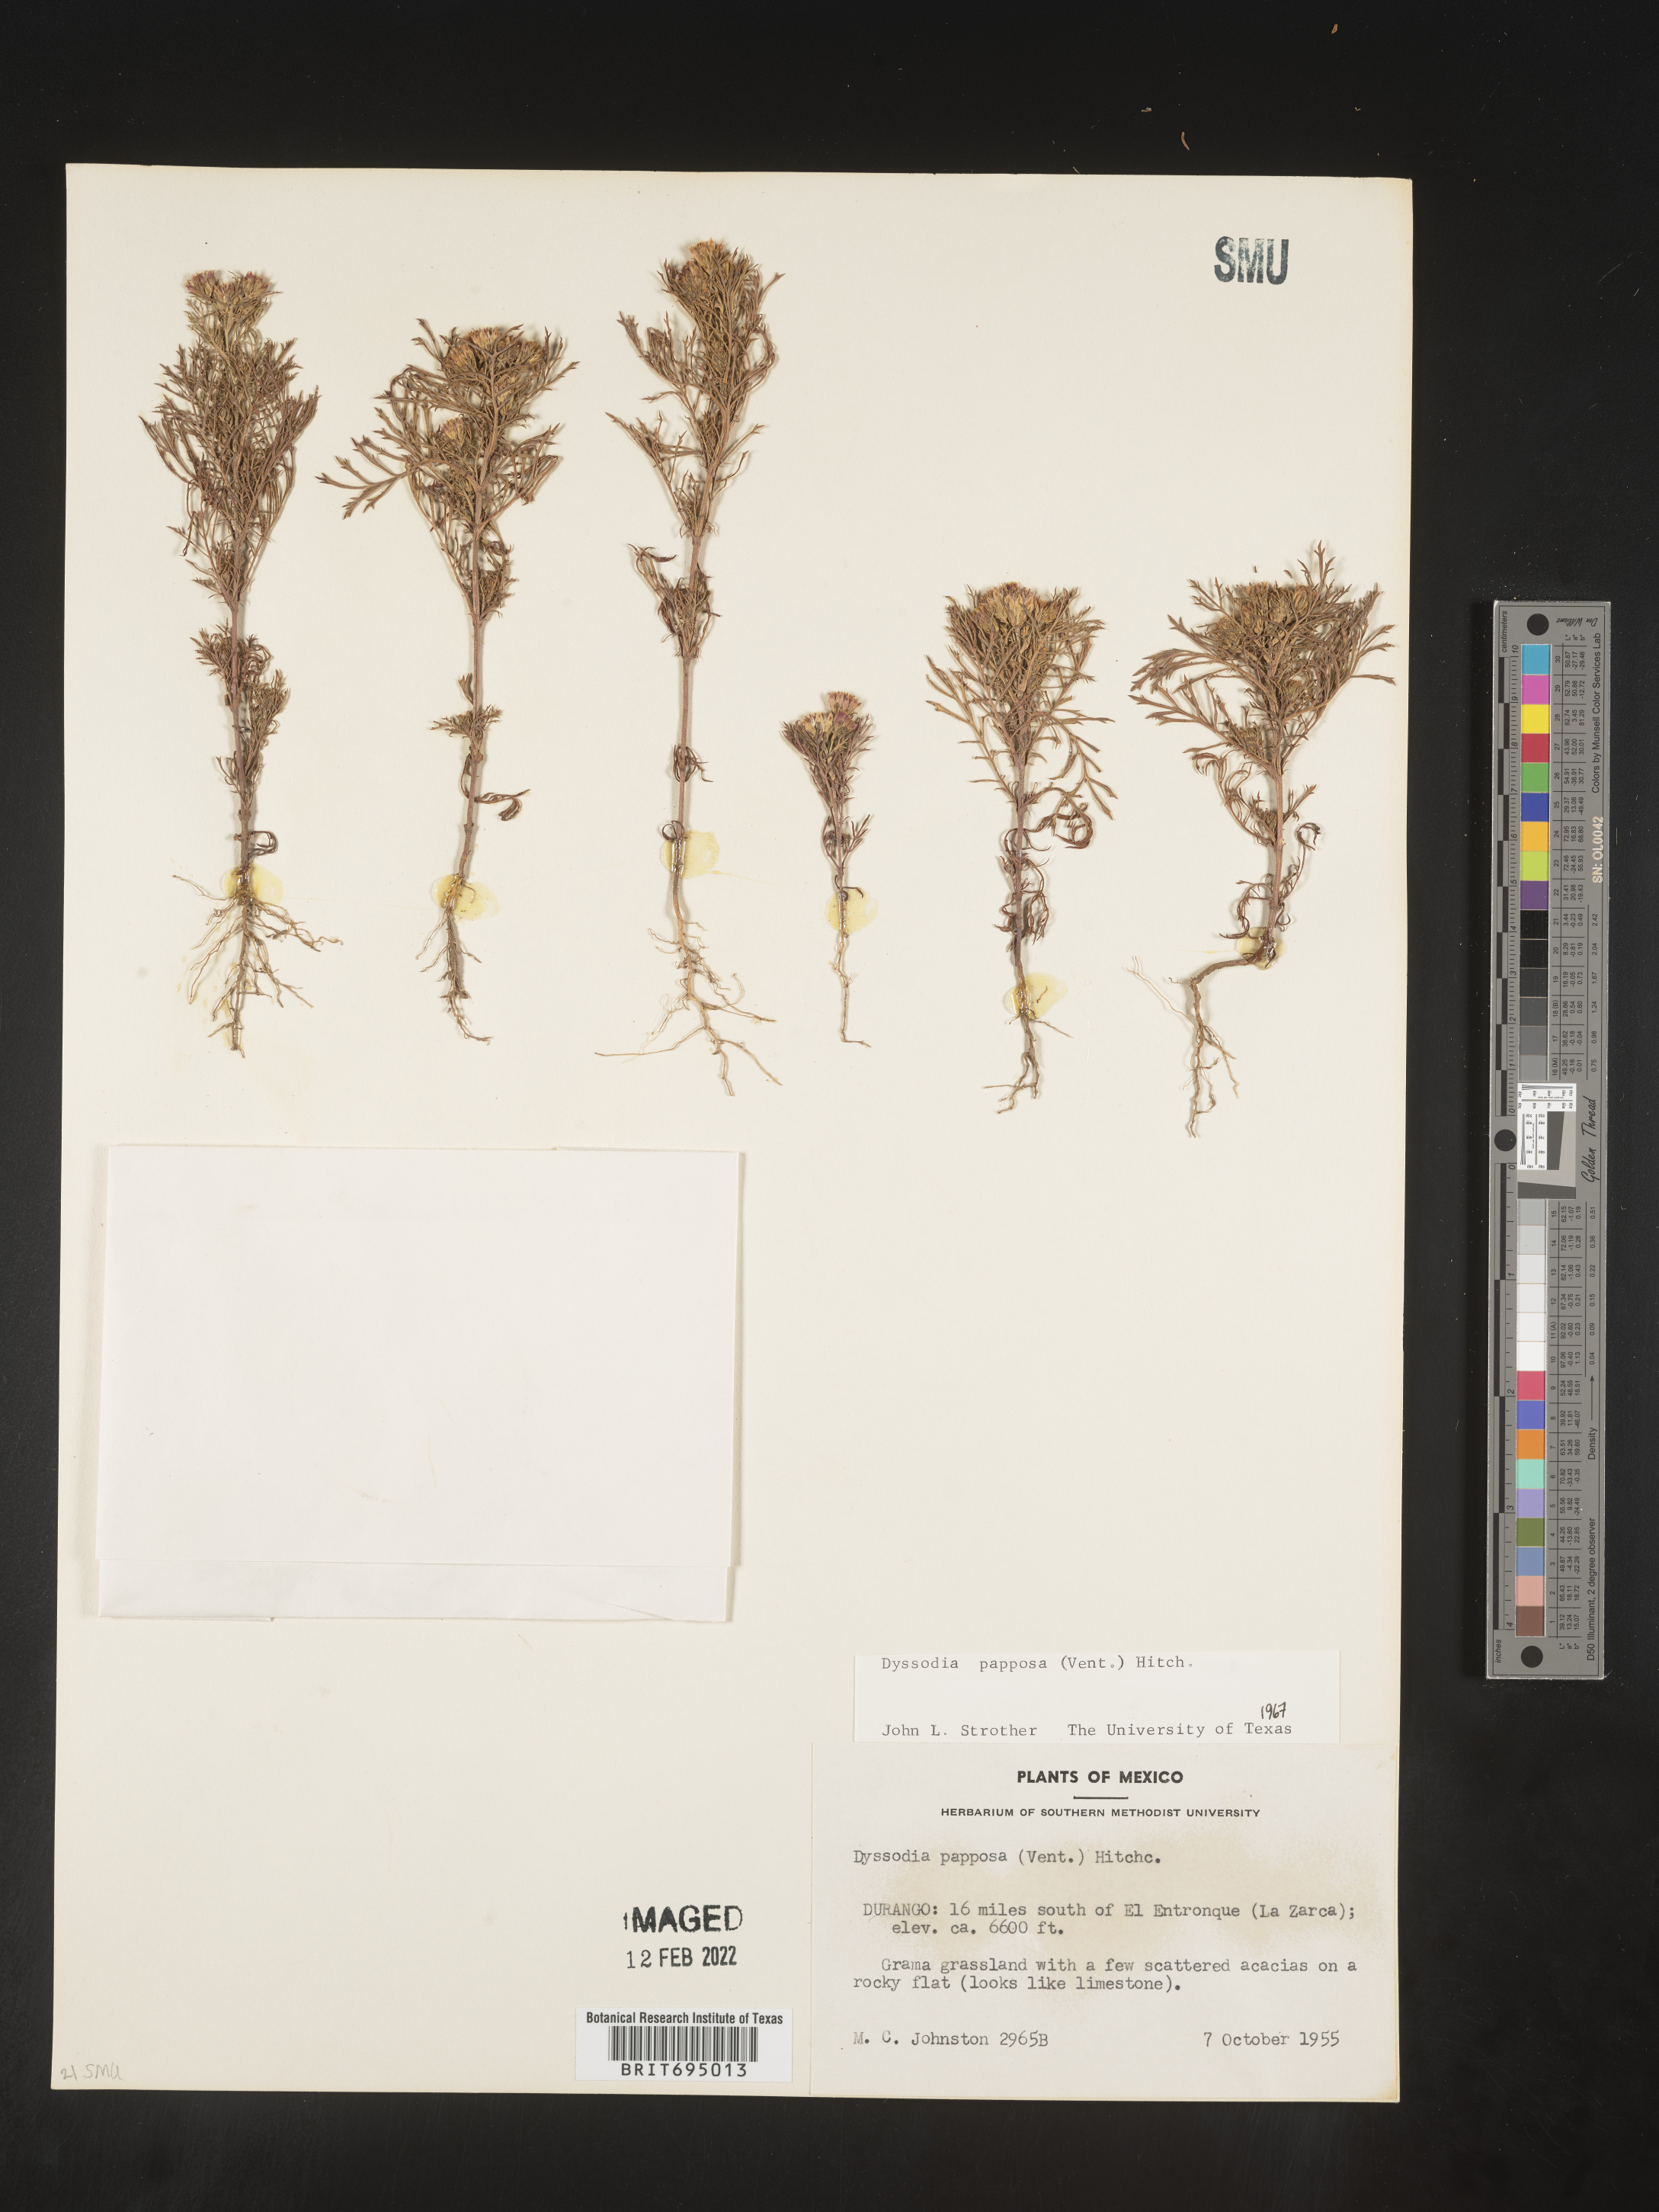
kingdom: Plantae
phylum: Tracheophyta
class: Magnoliopsida
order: Asterales
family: Asteraceae
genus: Dyssodia
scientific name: Dyssodia papposa
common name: Dogweed
